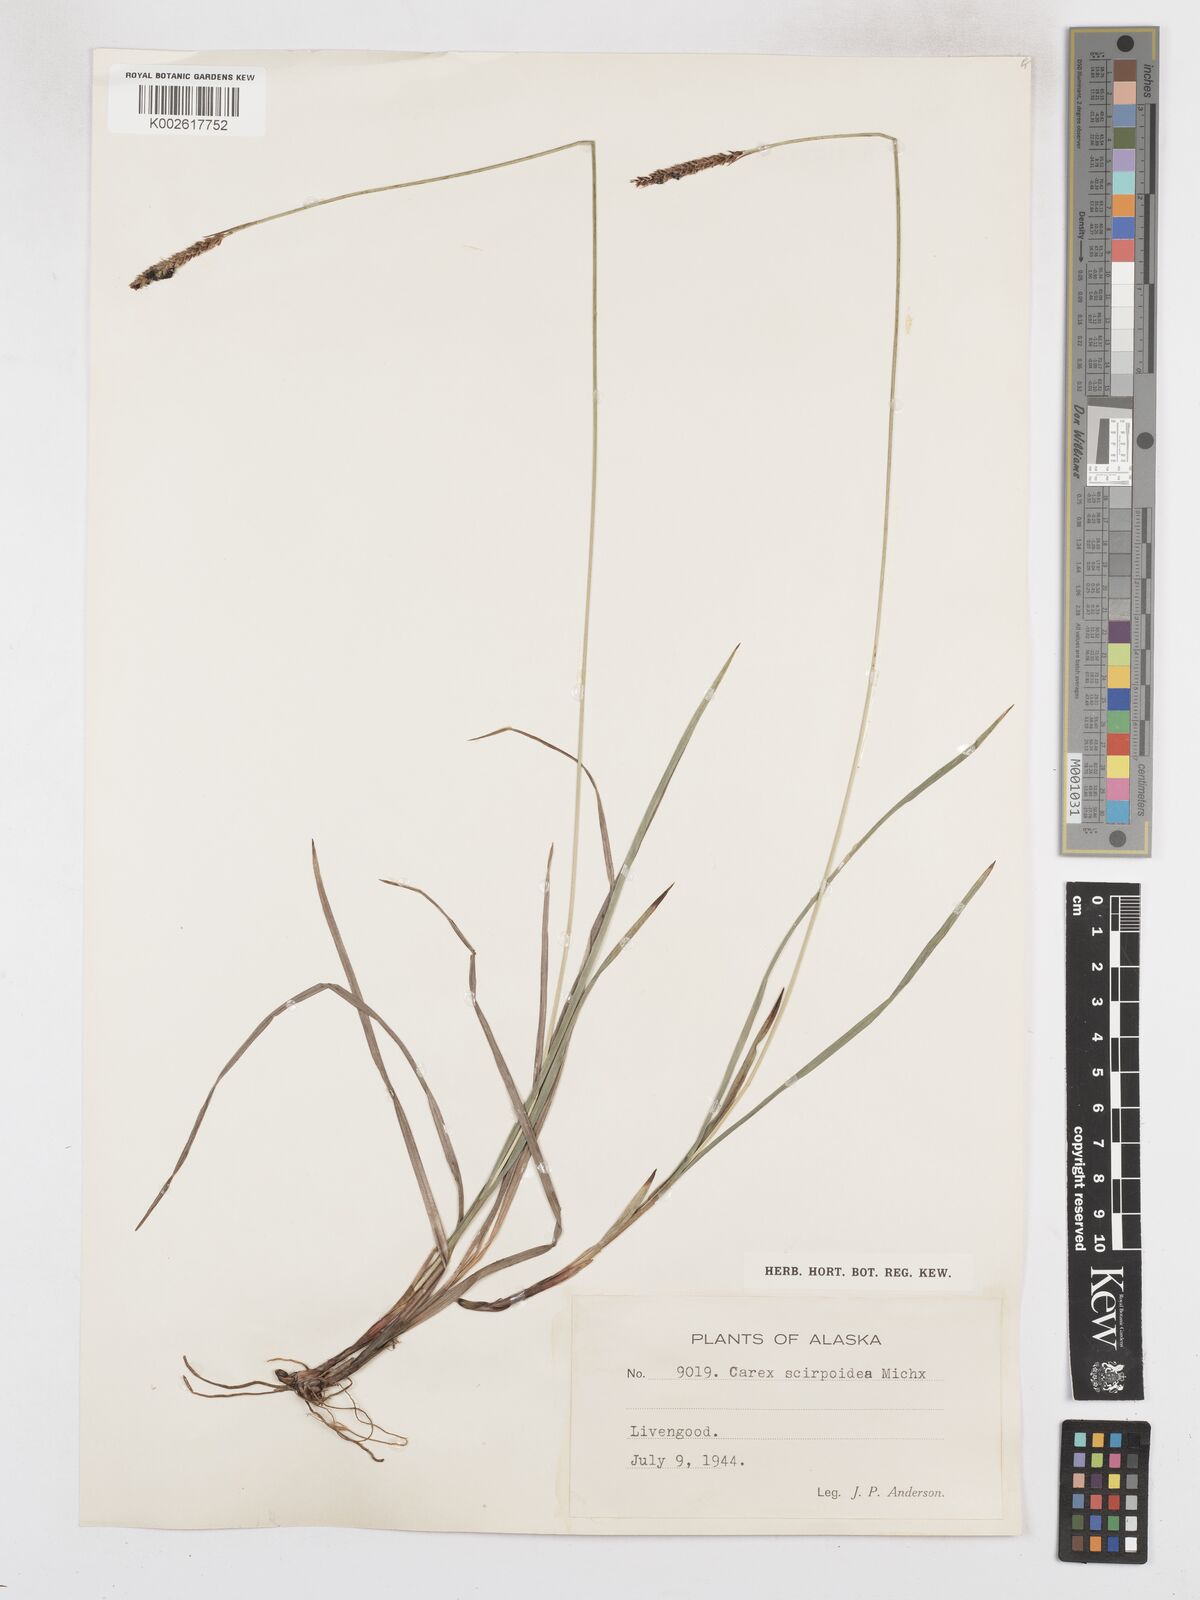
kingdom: Plantae
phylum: Tracheophyta
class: Liliopsida
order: Poales
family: Cyperaceae
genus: Carex
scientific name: Carex scirpoidea
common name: Canada single-spike sedge
